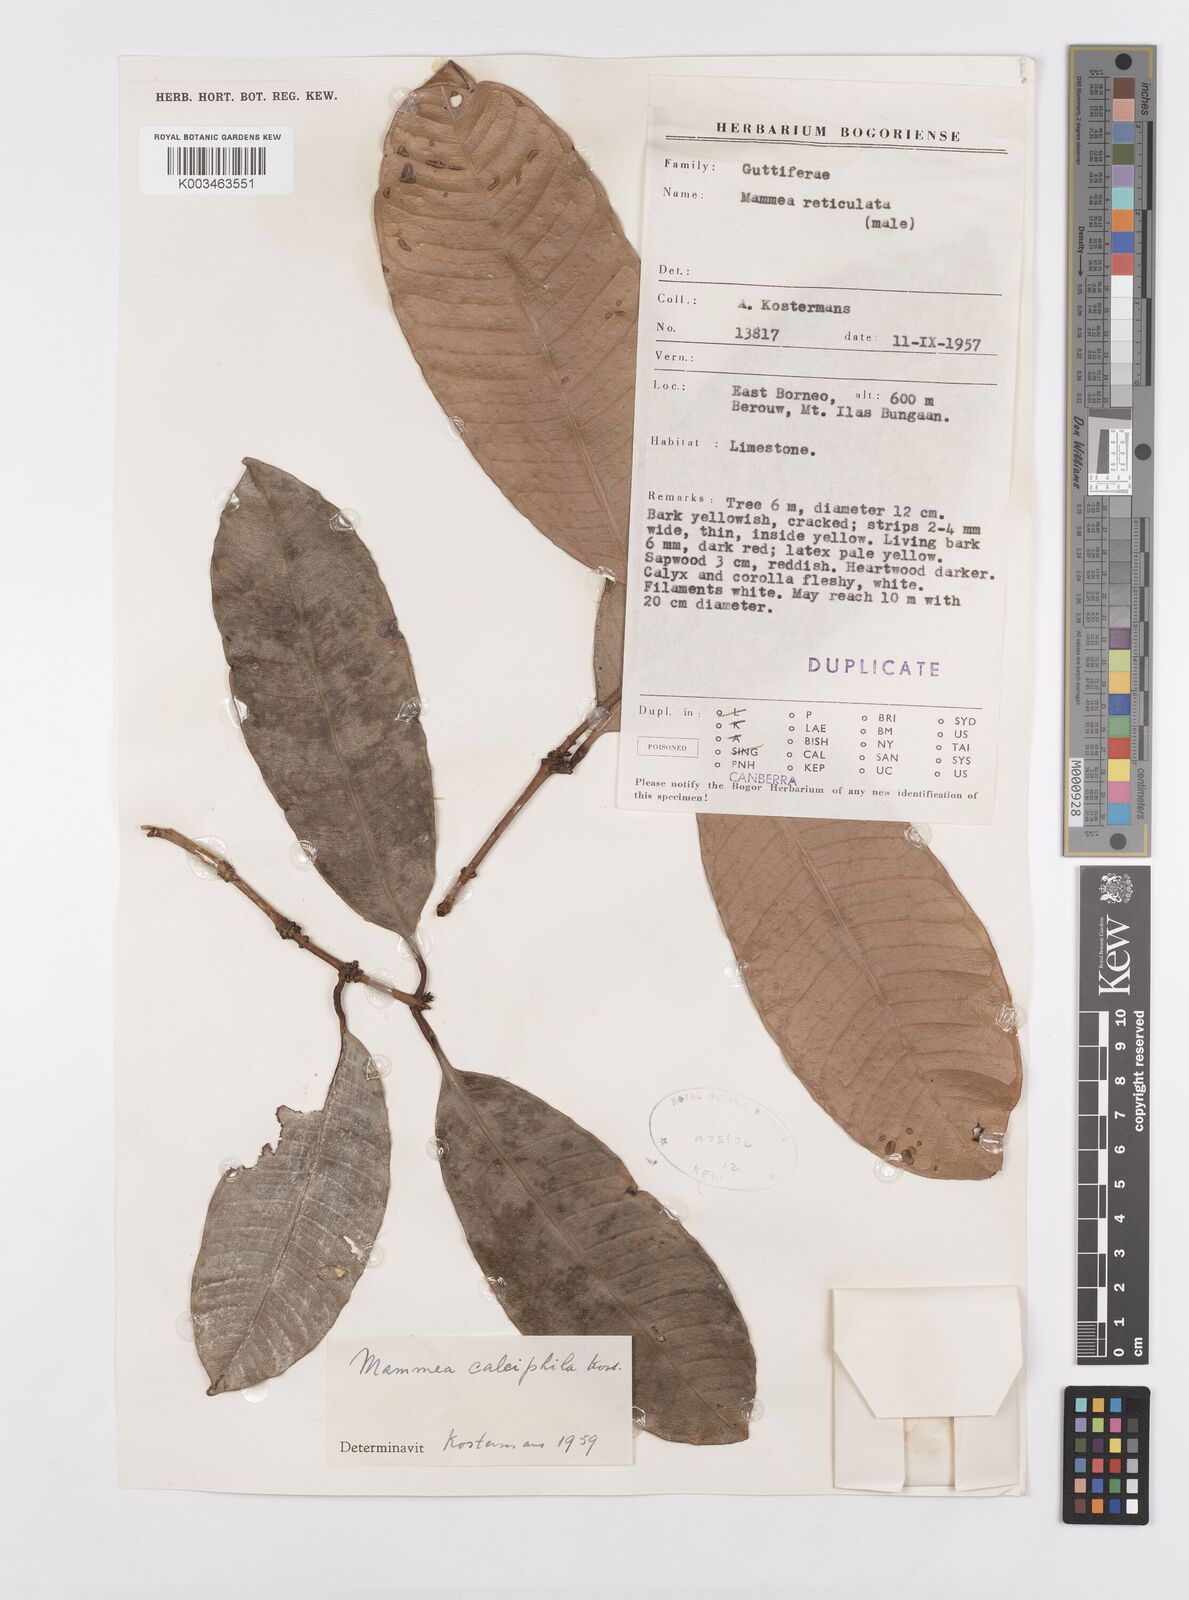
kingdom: Plantae
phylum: Tracheophyta
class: Magnoliopsida
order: Malpighiales
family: Calophyllaceae
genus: Mammea
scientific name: Mammea calciphila
